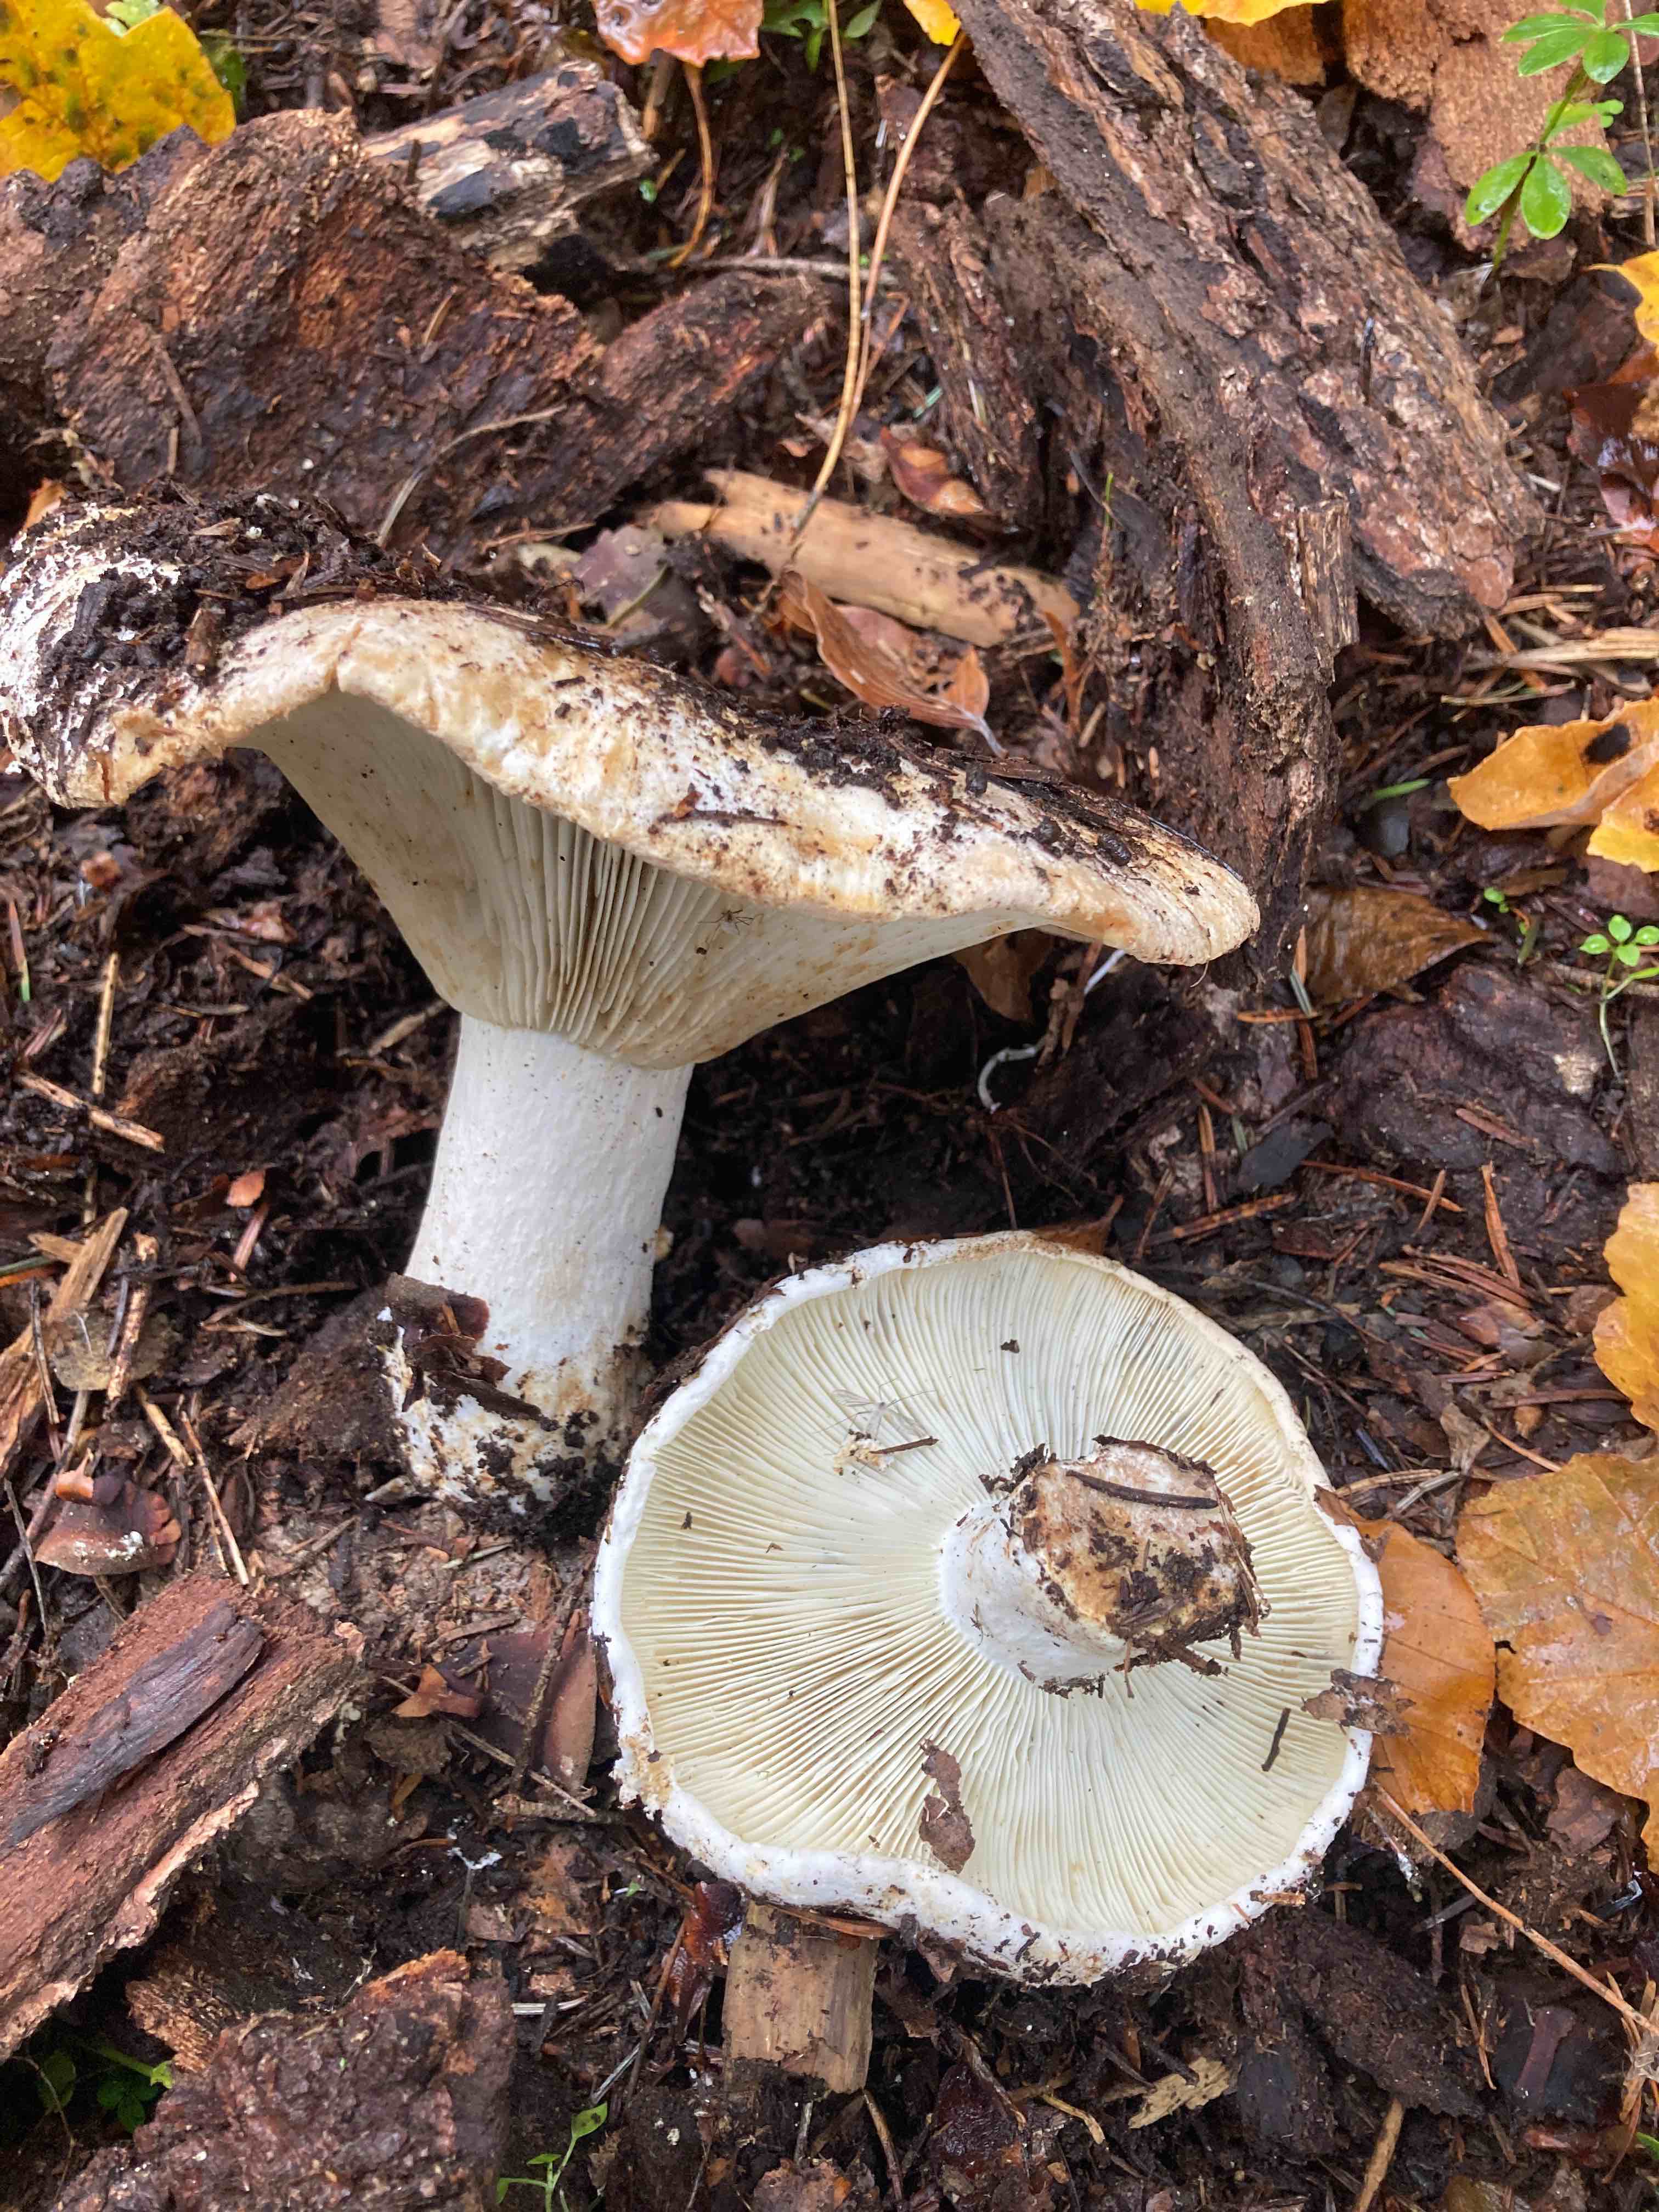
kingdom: Fungi
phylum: Basidiomycota
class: Agaricomycetes
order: Russulales
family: Russulaceae
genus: Russula
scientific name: Russula
